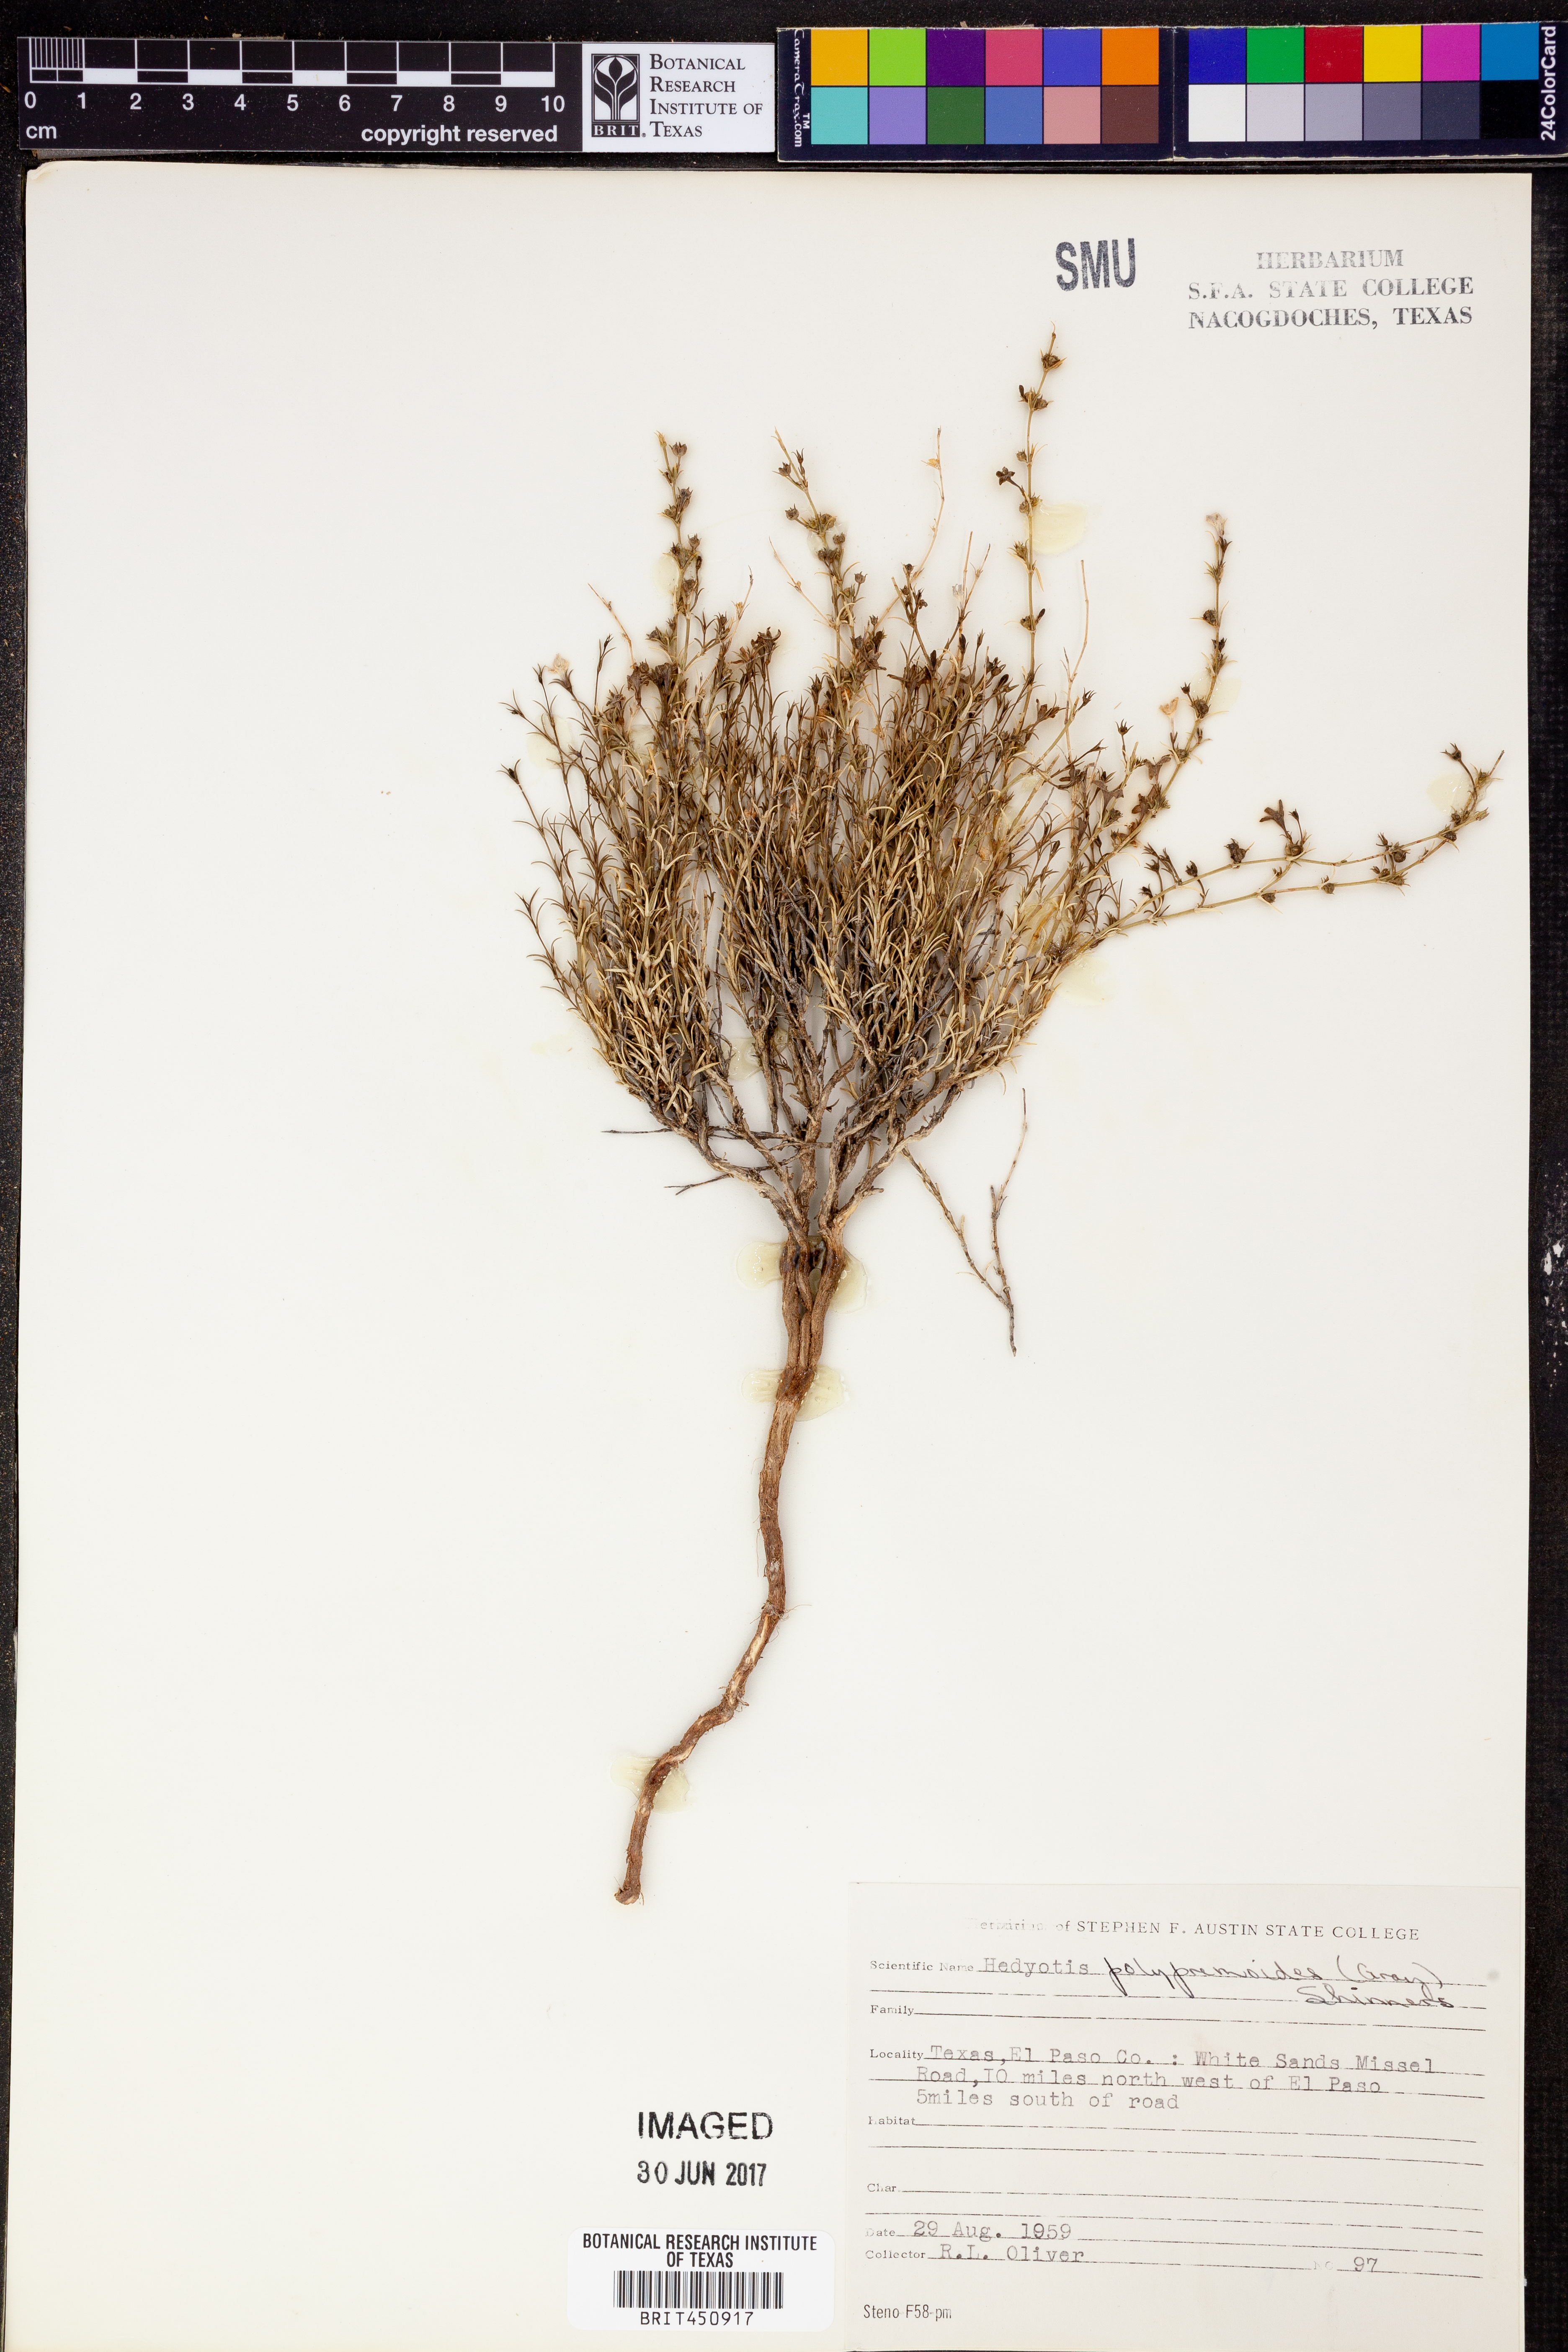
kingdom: Plantae
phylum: Tracheophyta
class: Magnoliopsida
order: Gentianales
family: Rubiaceae
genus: Houstonia
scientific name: Houstonia acerosa
